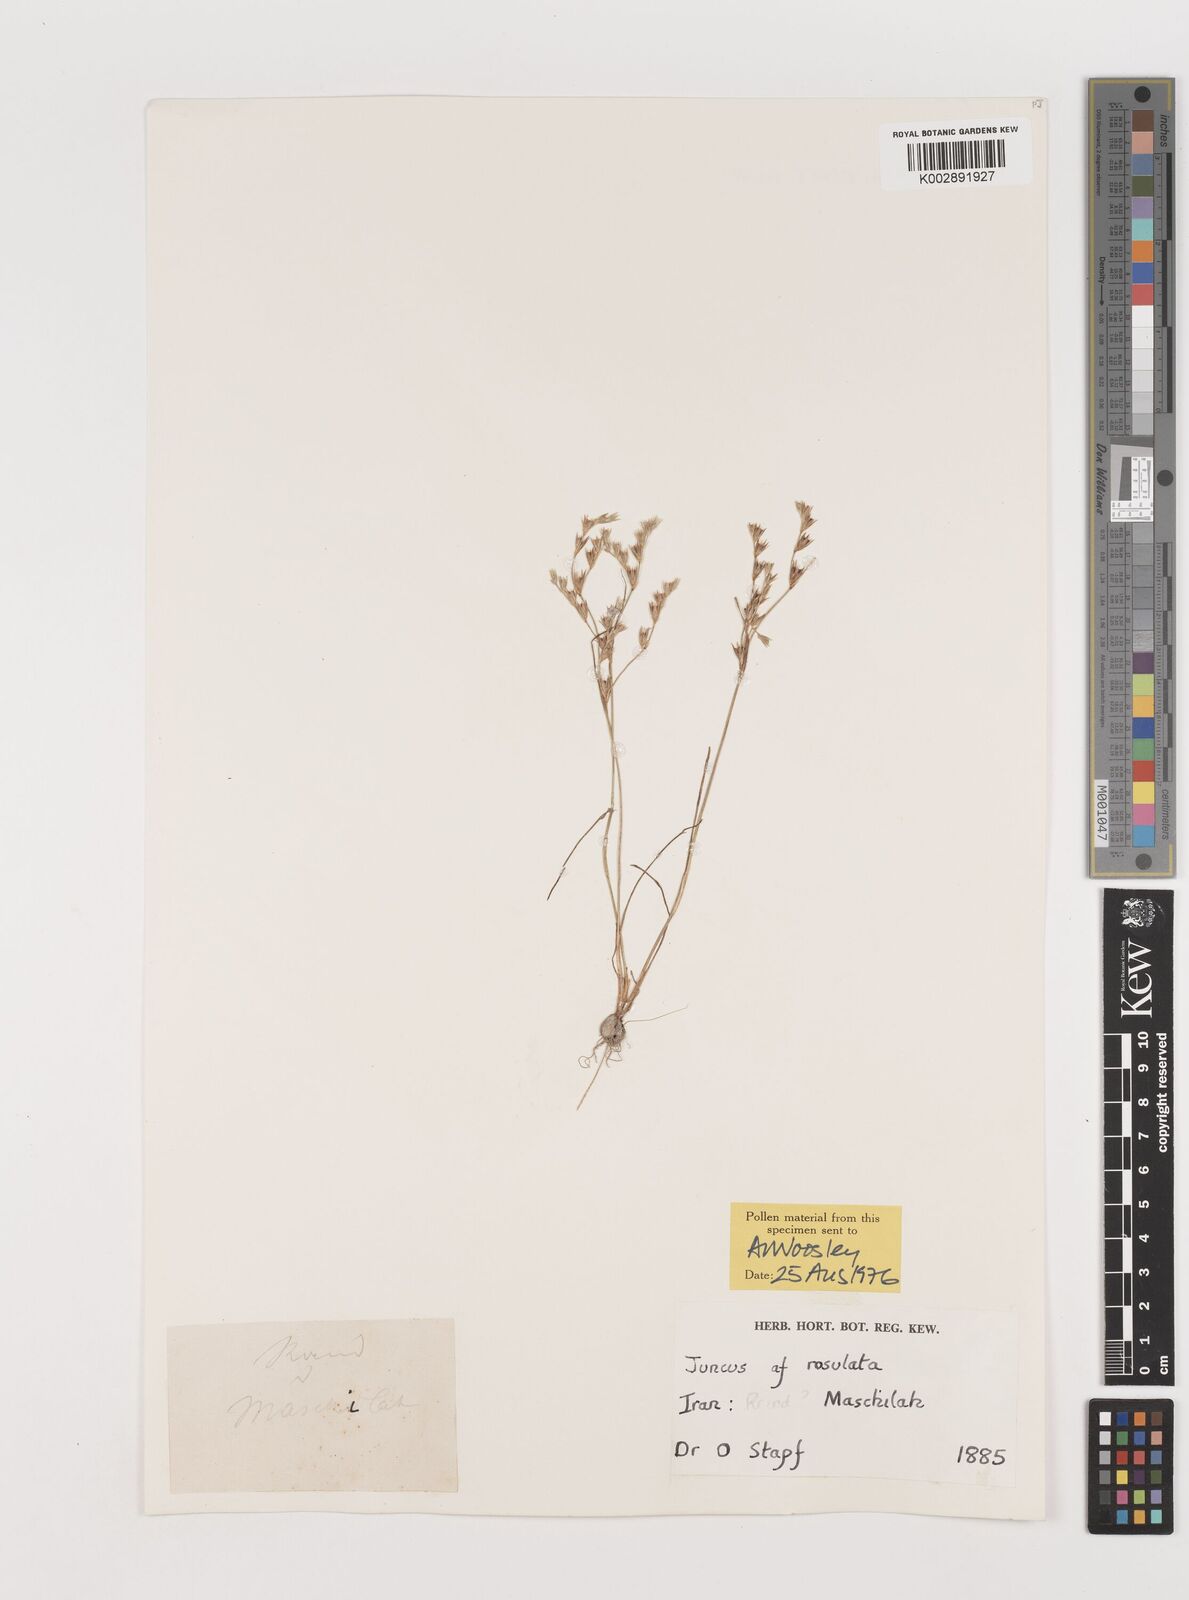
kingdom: Plantae
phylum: Tracheophyta
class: Liliopsida
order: Poales
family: Juncaceae
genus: Juncus
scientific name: Juncus
